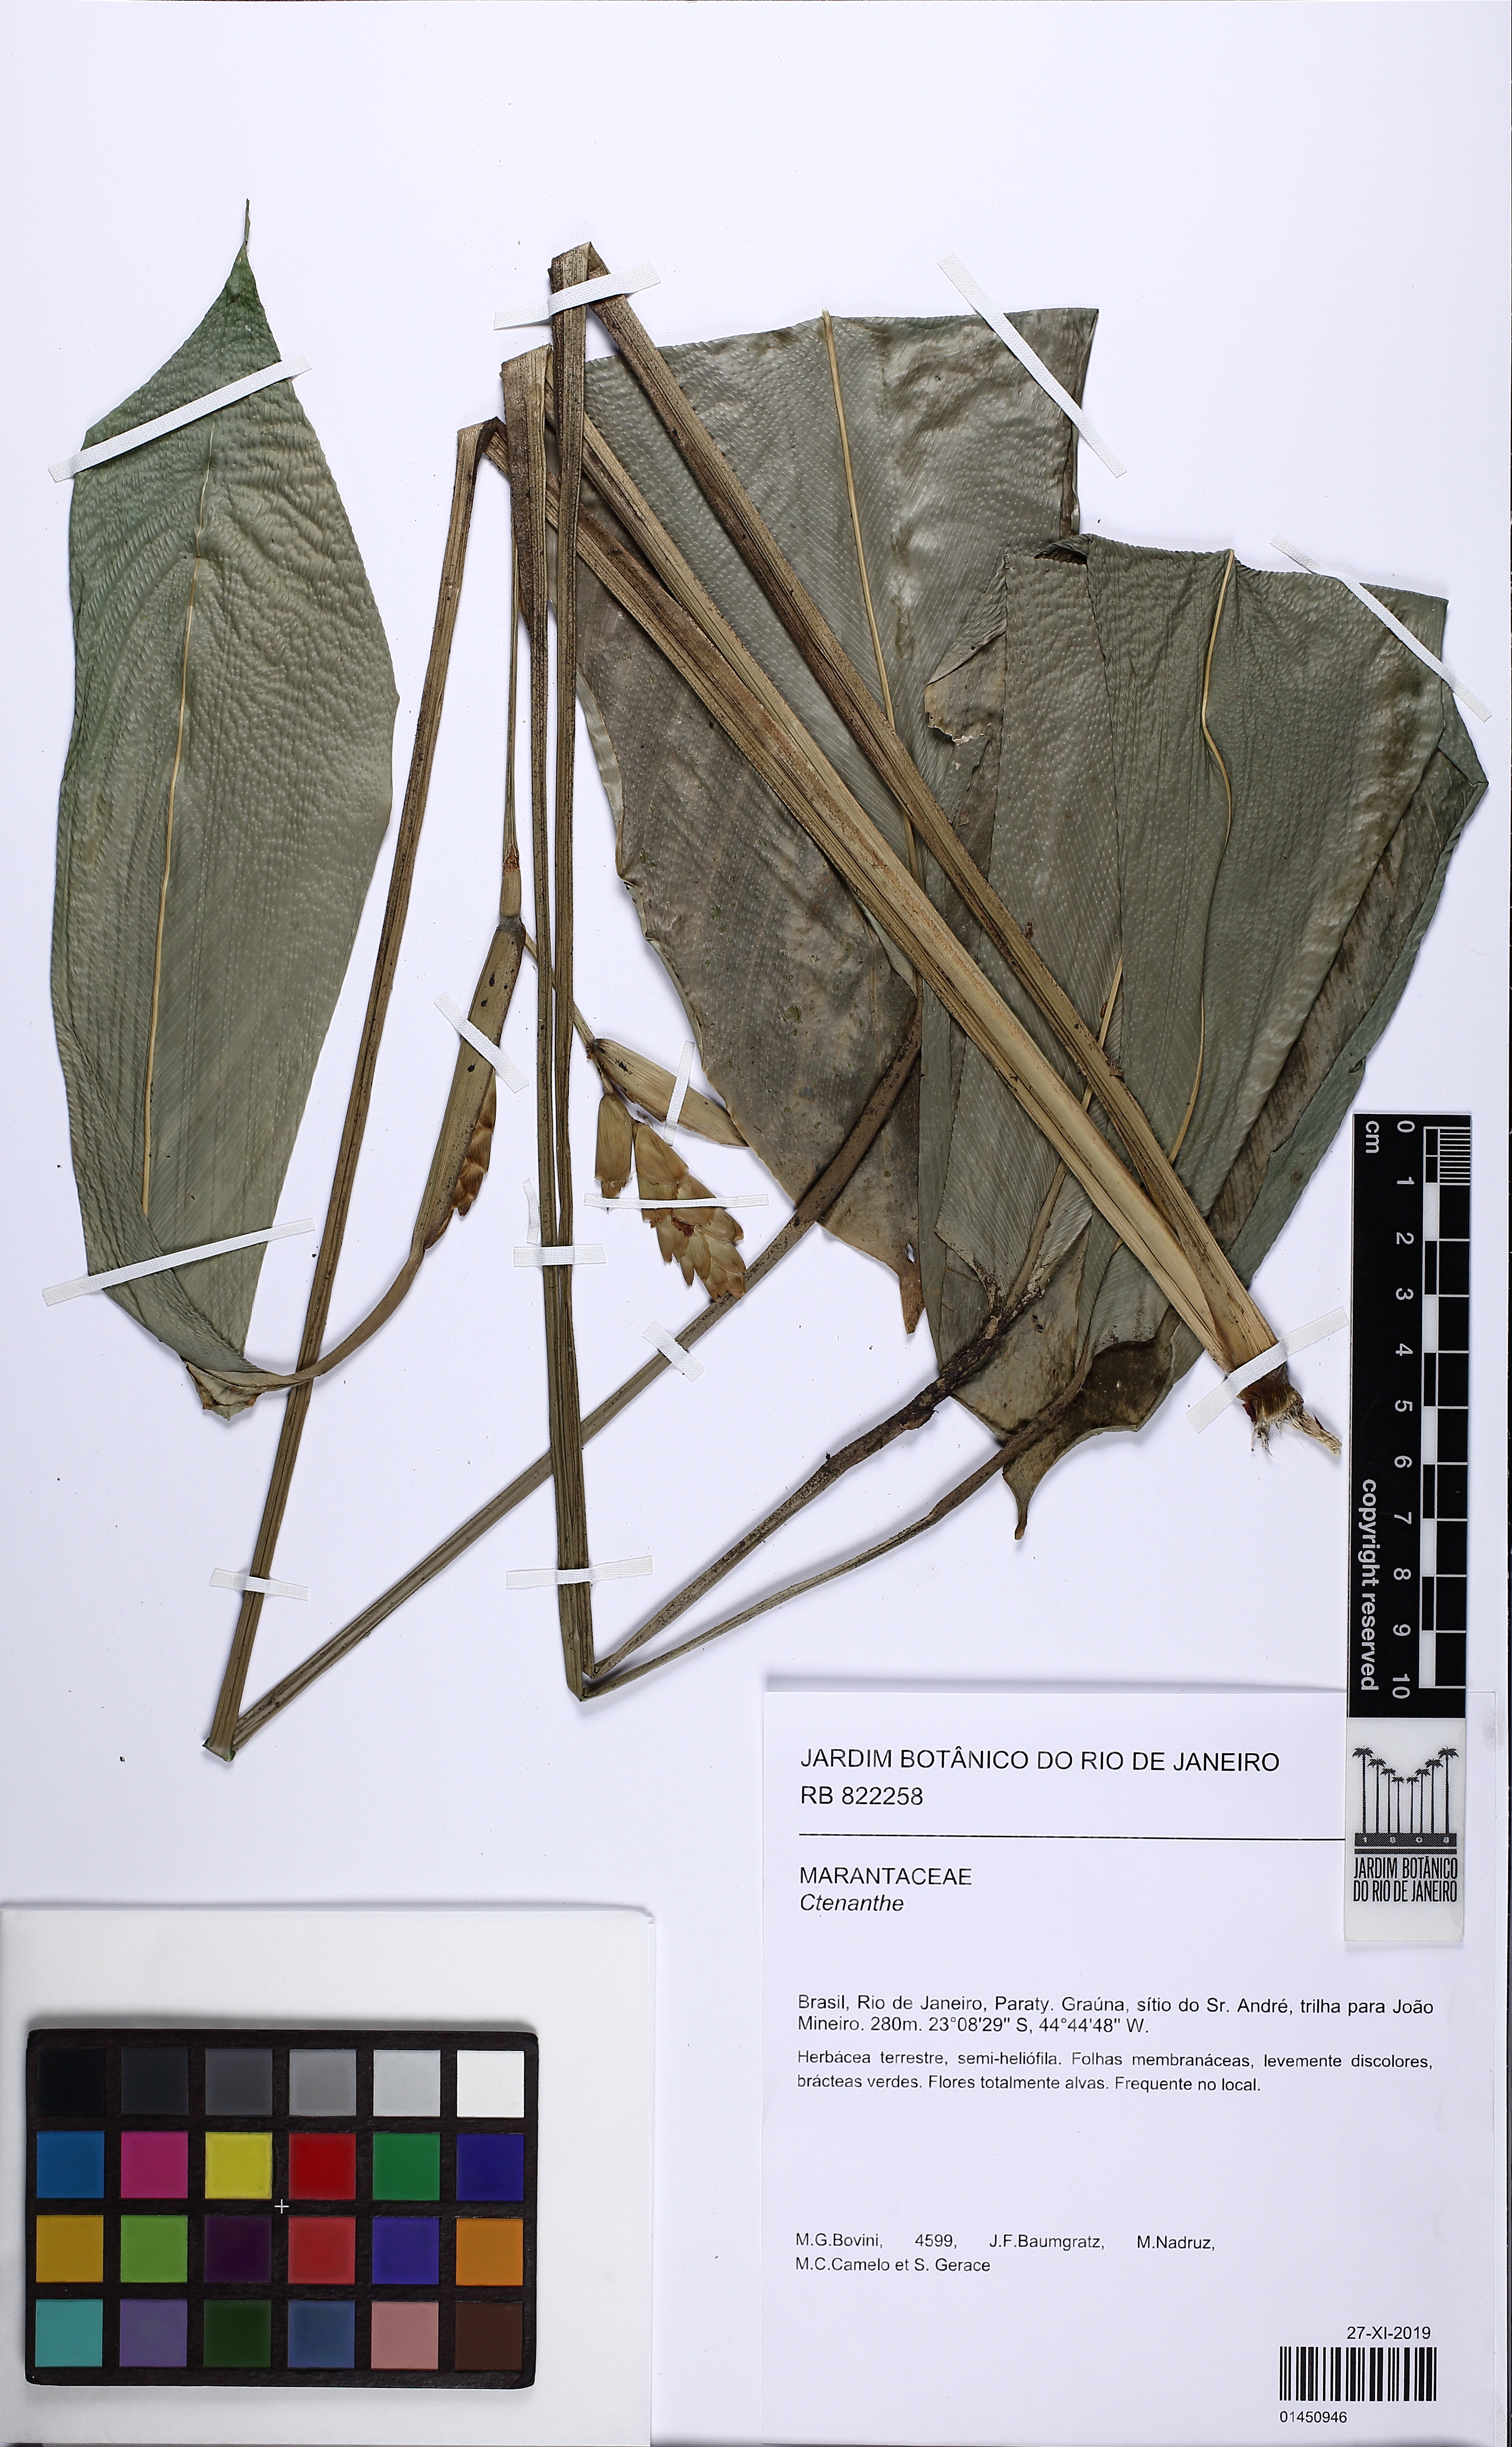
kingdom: Plantae
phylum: Tracheophyta
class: Liliopsida
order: Zingiberales
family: Marantaceae
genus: Ctenanthe
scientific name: Ctenanthe
